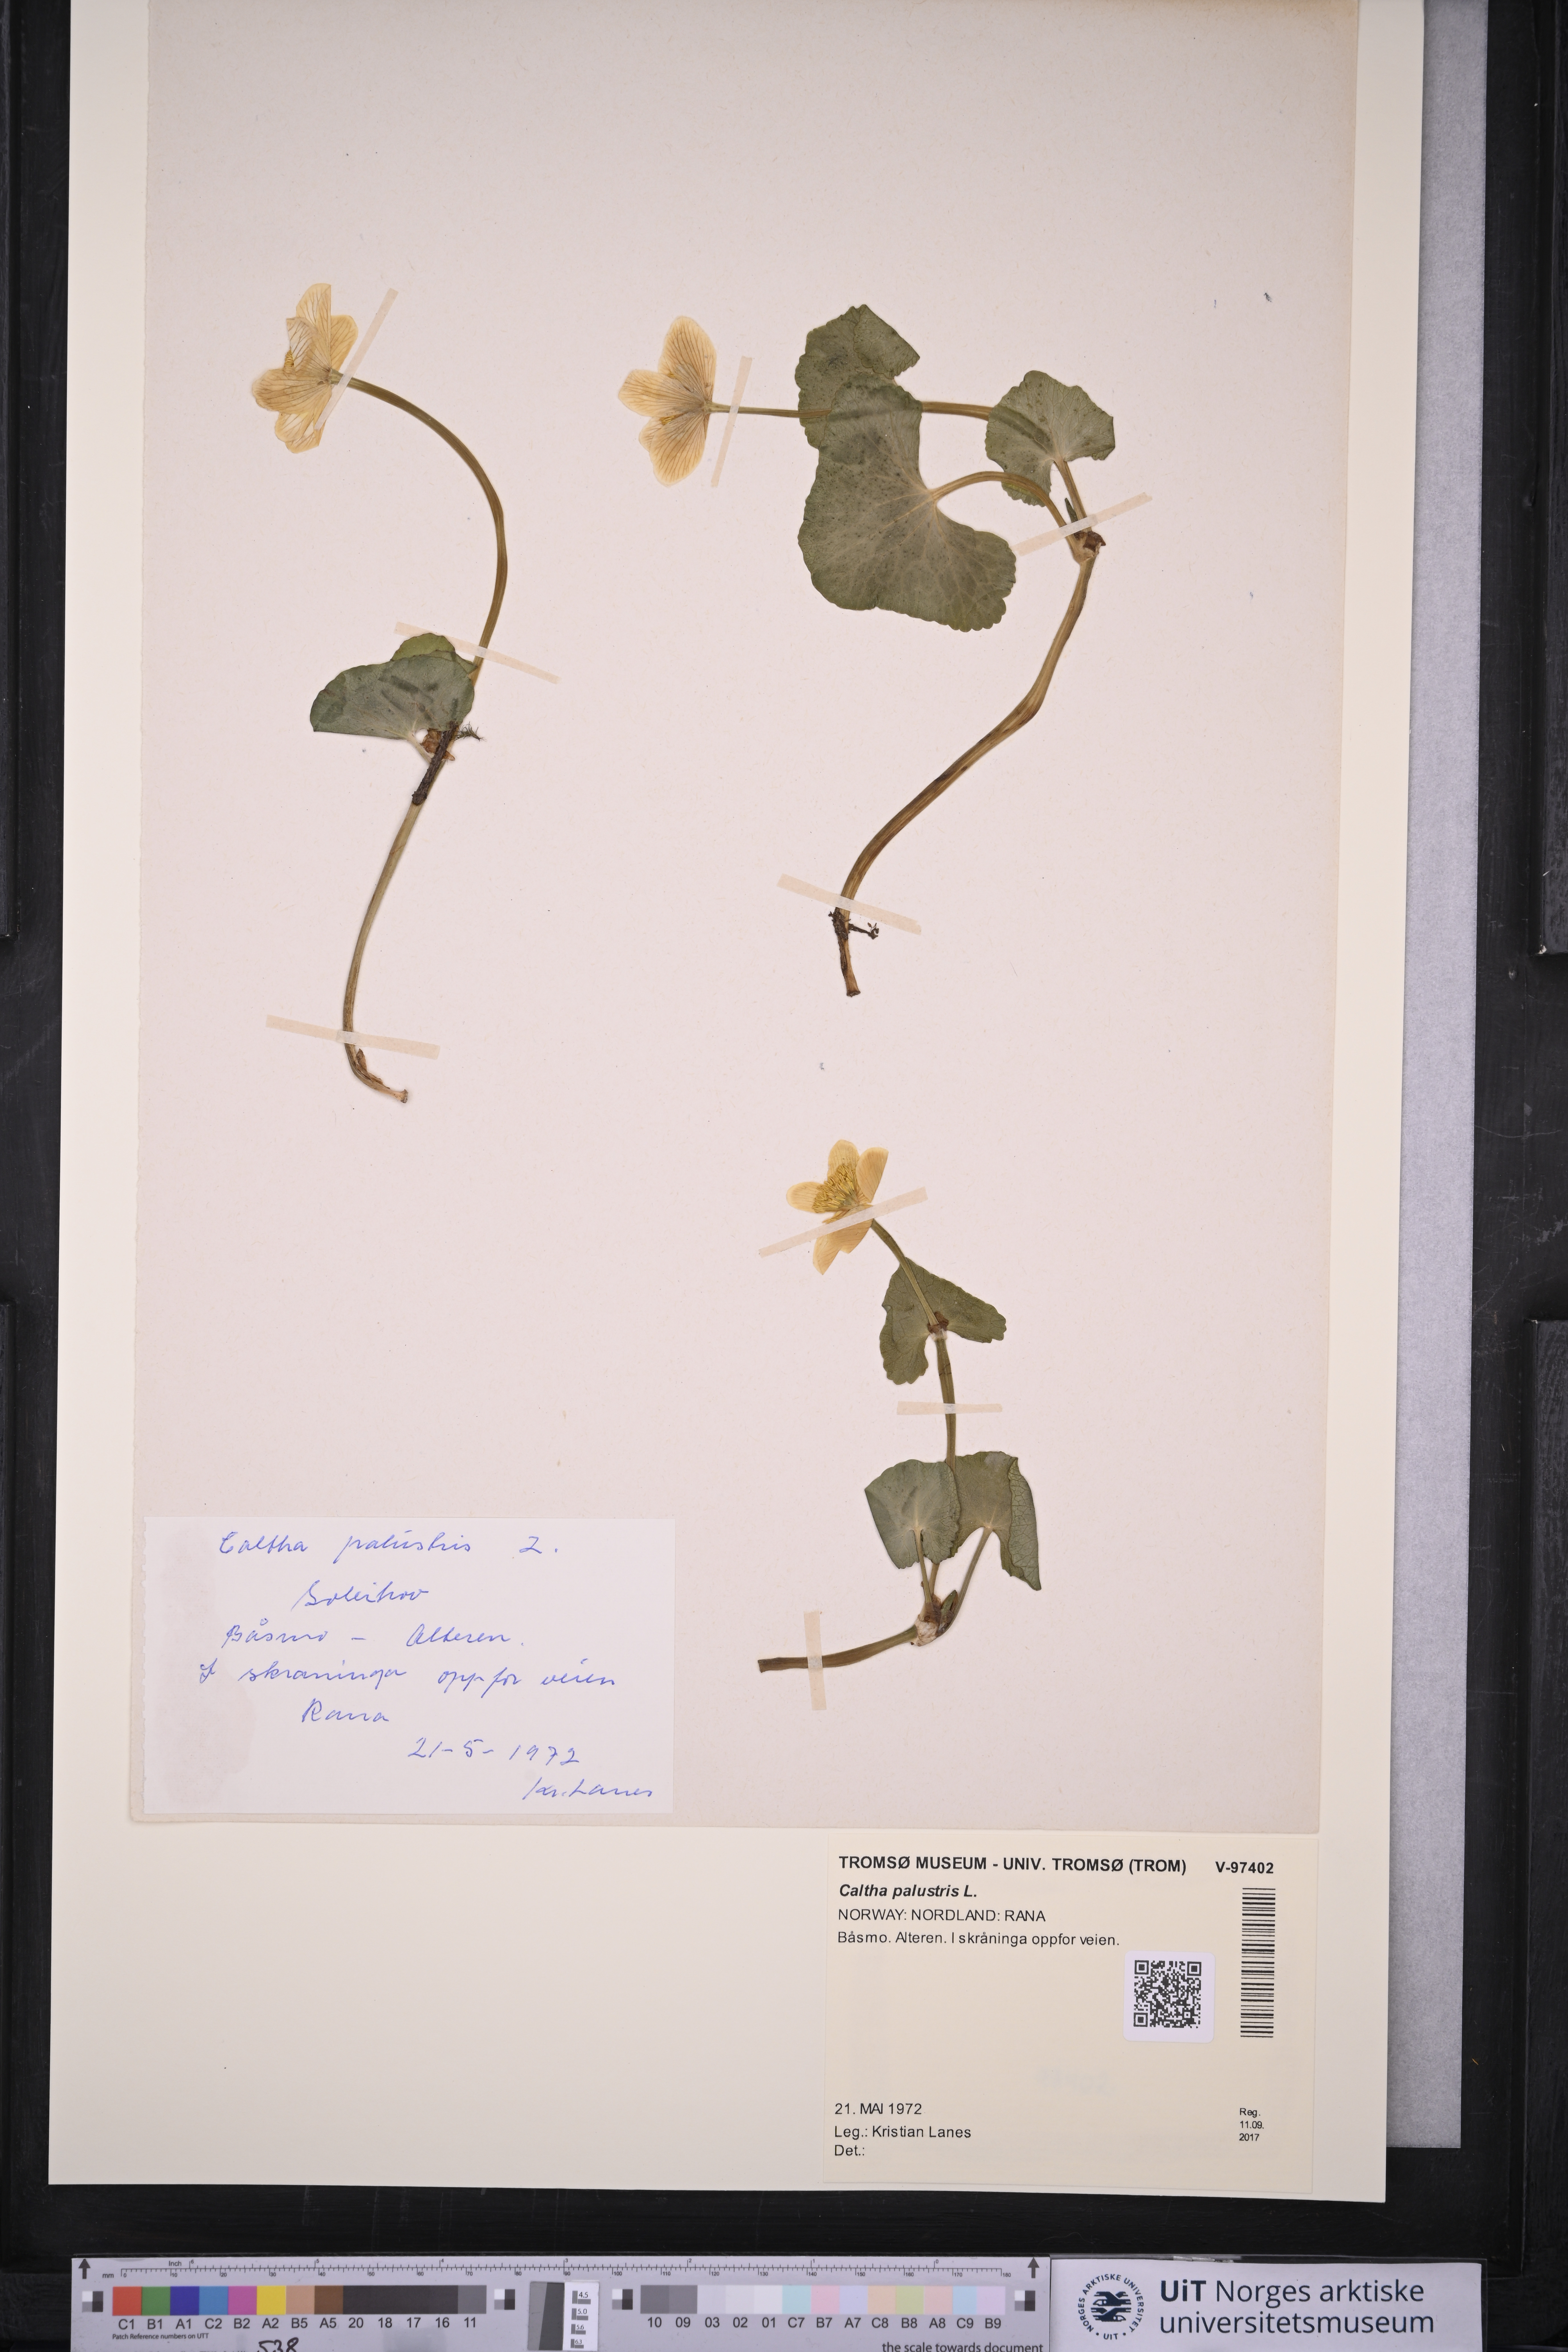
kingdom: Plantae
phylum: Tracheophyta
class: Magnoliopsida
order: Ranunculales
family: Ranunculaceae
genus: Caltha
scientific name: Caltha palustris
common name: Marsh marigold
